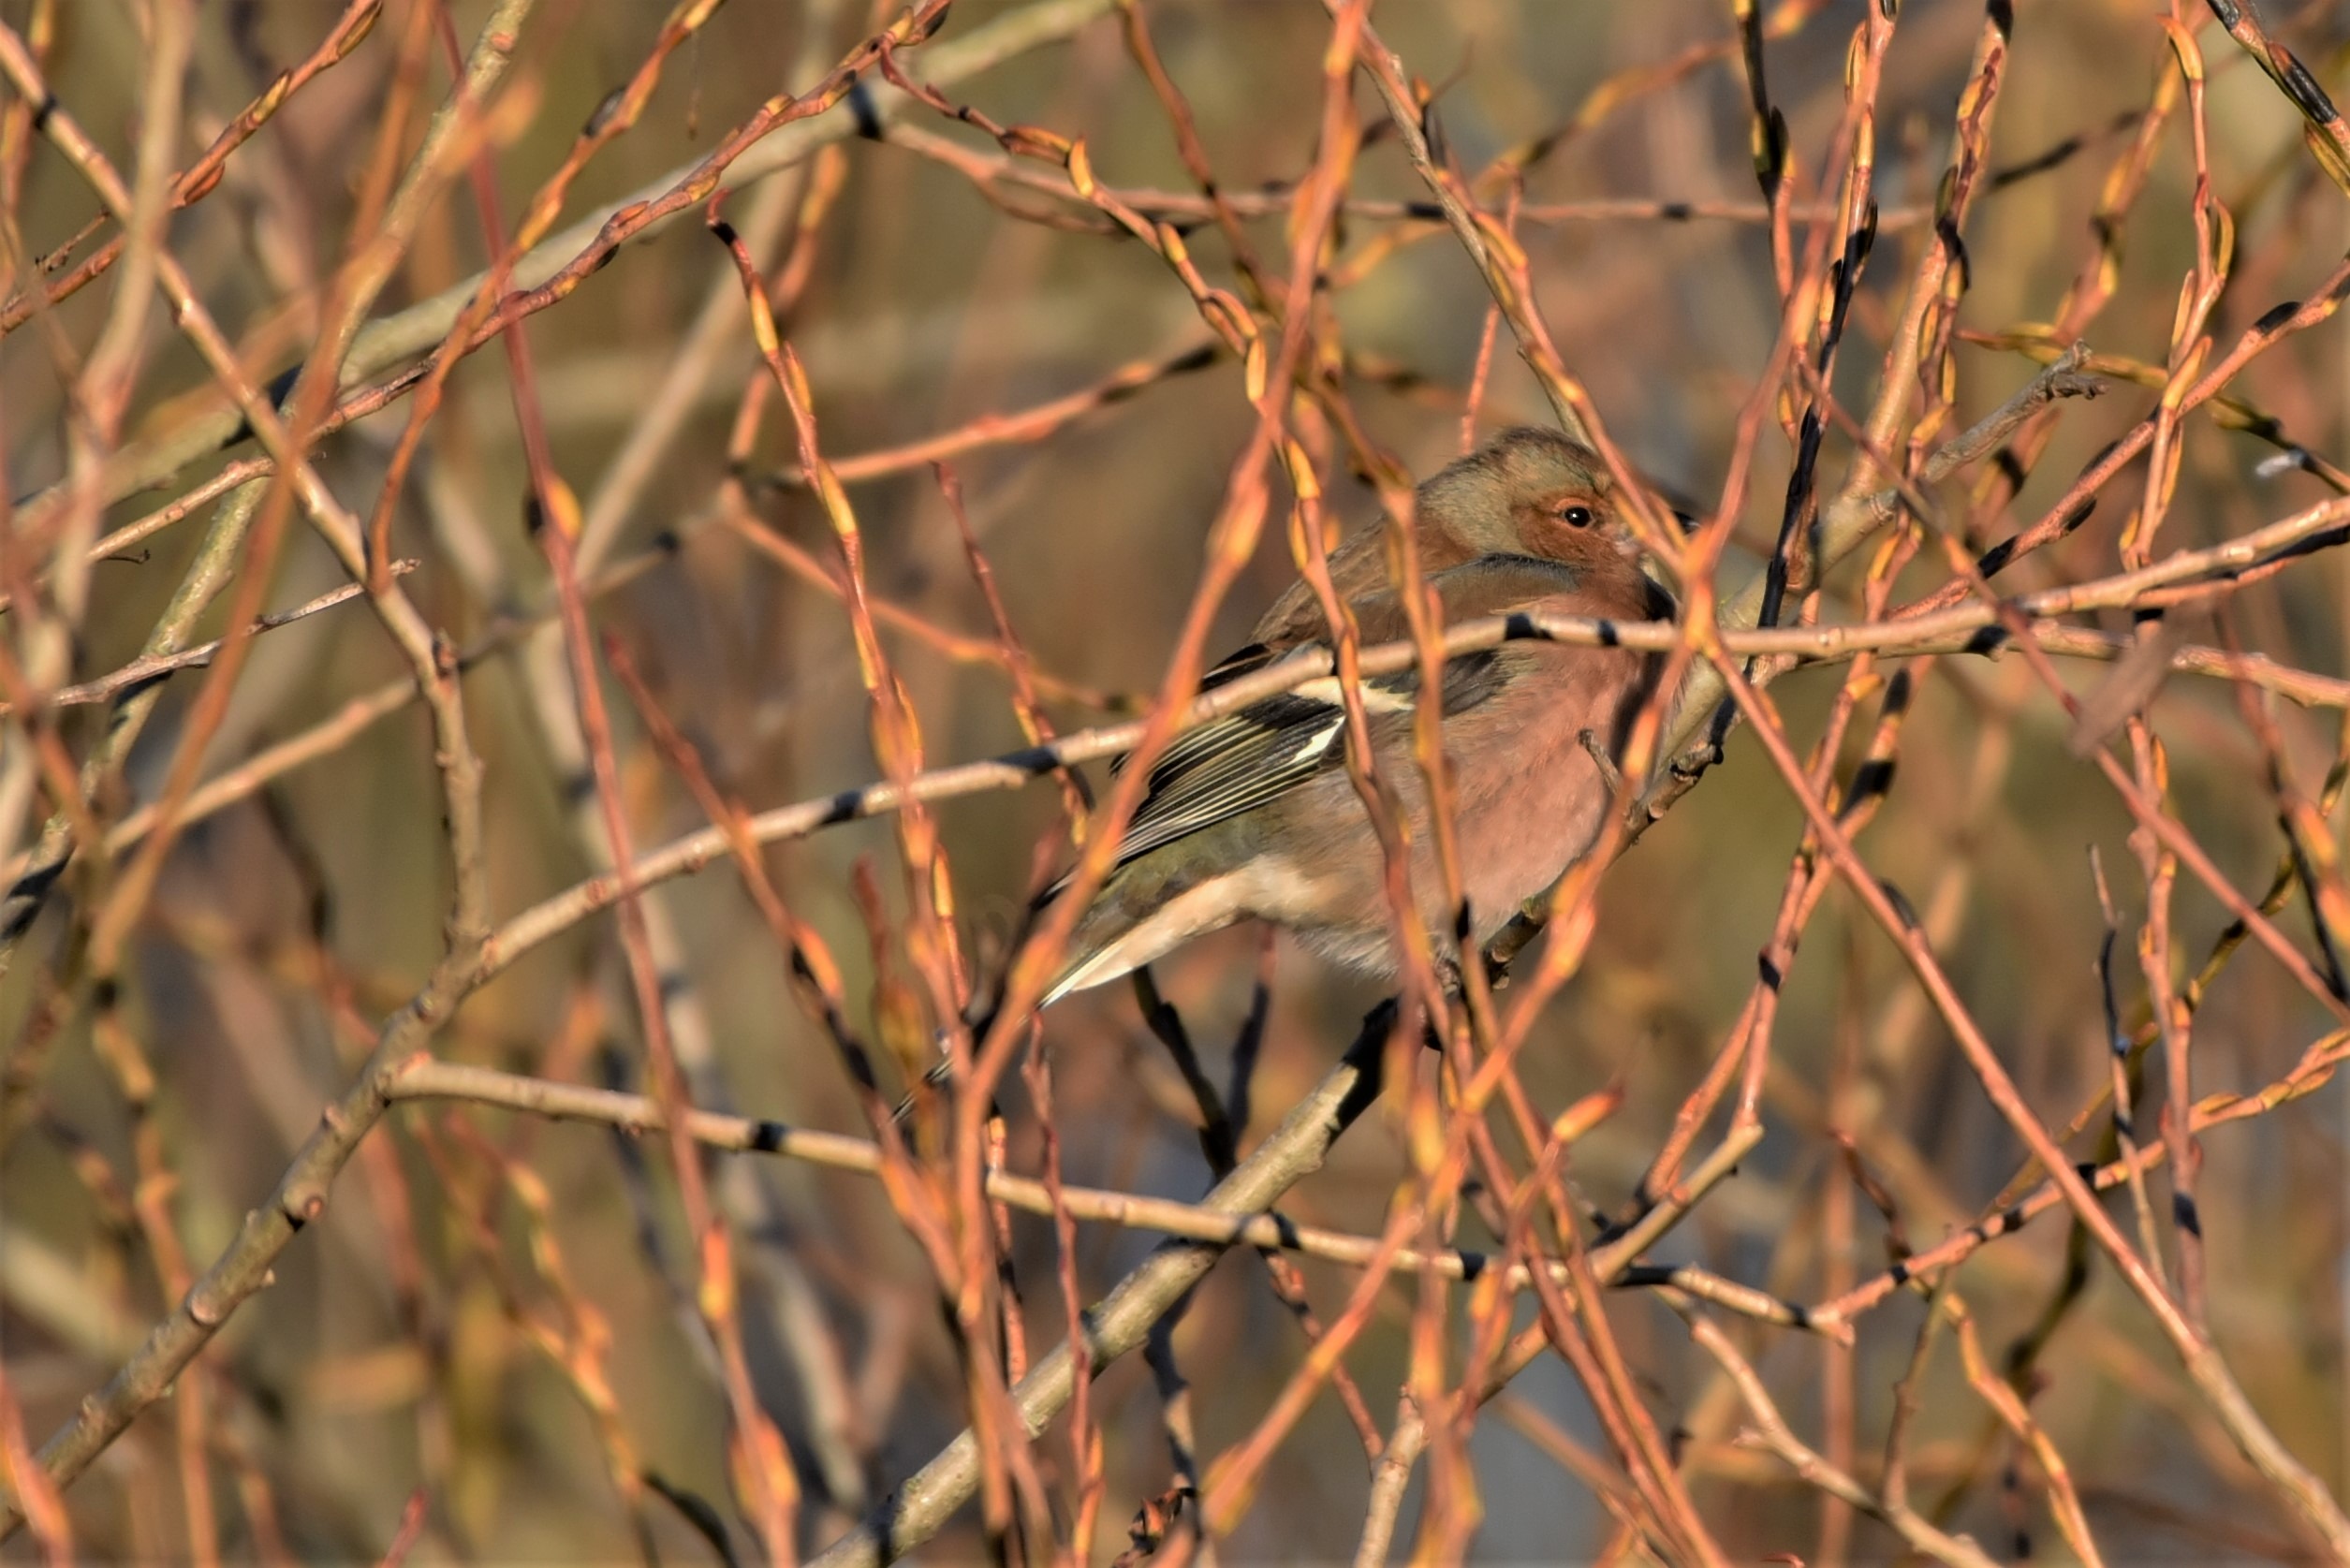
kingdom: Animalia
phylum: Chordata
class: Aves
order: Passeriformes
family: Fringillidae
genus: Fringilla
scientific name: Fringilla coelebs
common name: Bogfinke
